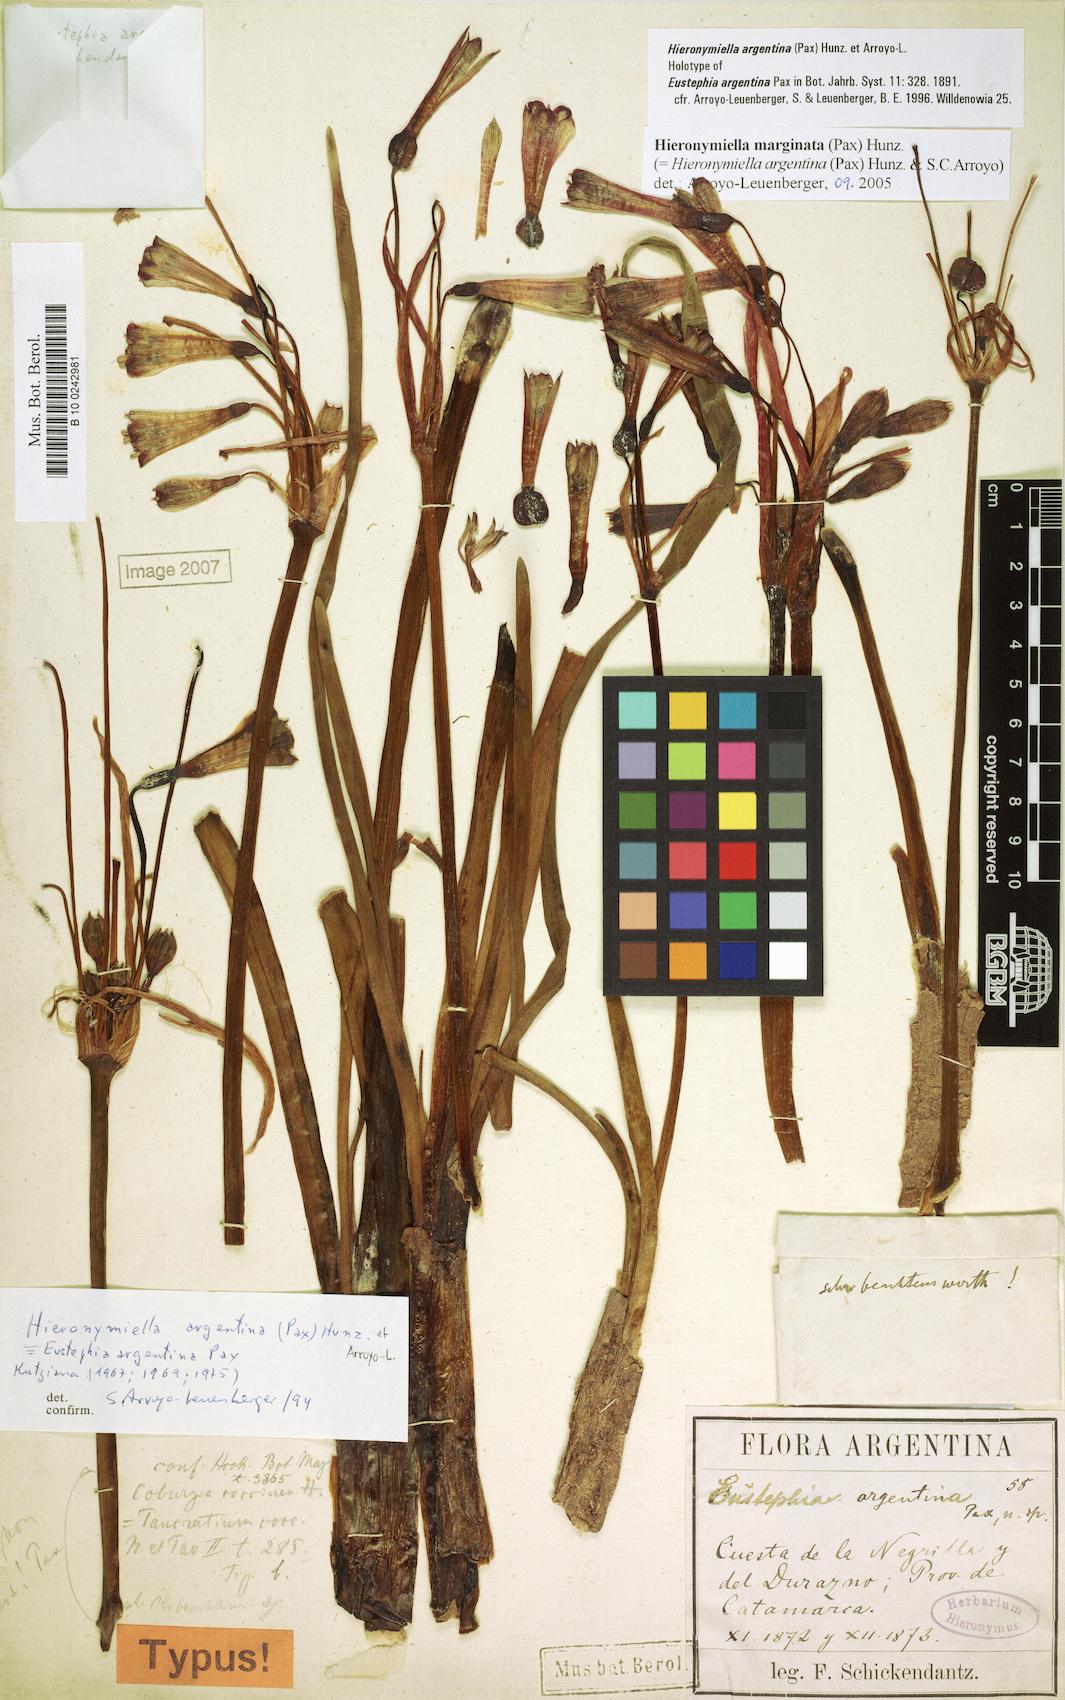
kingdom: Plantae
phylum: Tracheophyta
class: Liliopsida
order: Asparagales
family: Amaryllidaceae
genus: Hieronymiella
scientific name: Hieronymiella argentina
